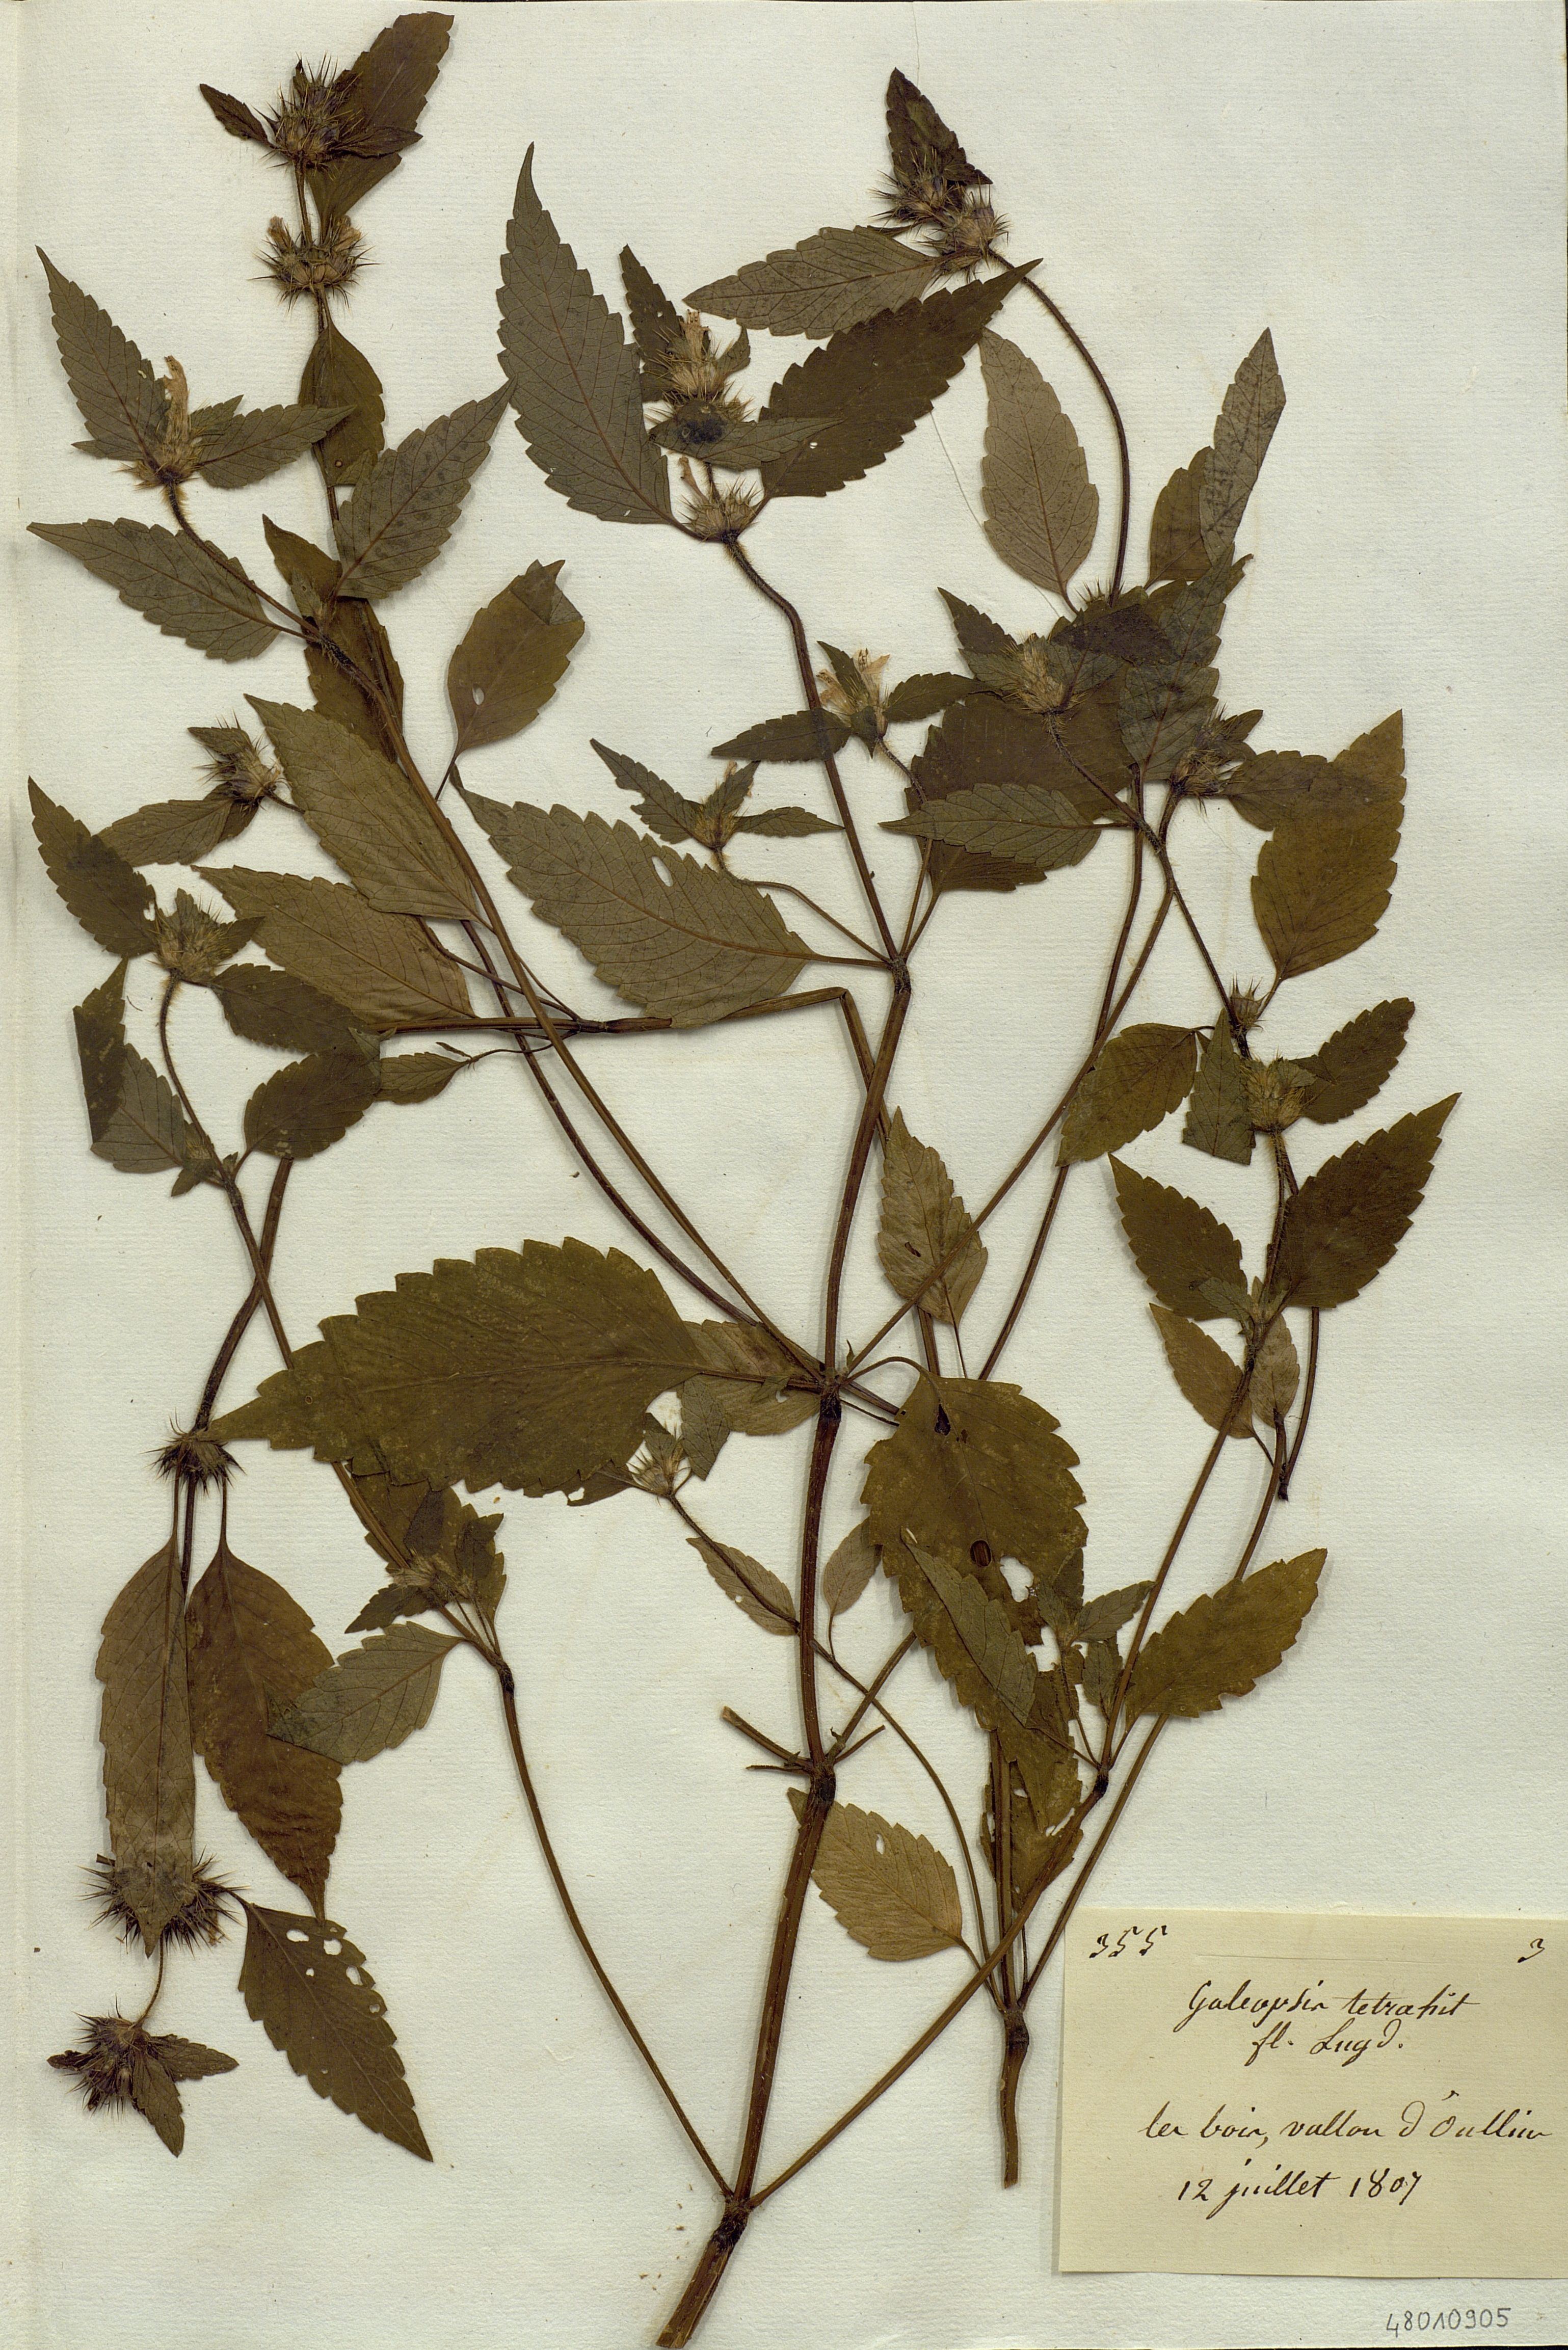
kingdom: Plantae
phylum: Tracheophyta
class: Magnoliopsida
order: Lamiales
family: Lamiaceae
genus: Galeopsis
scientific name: Galeopsis tetrahit
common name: Common hemp-nettle
